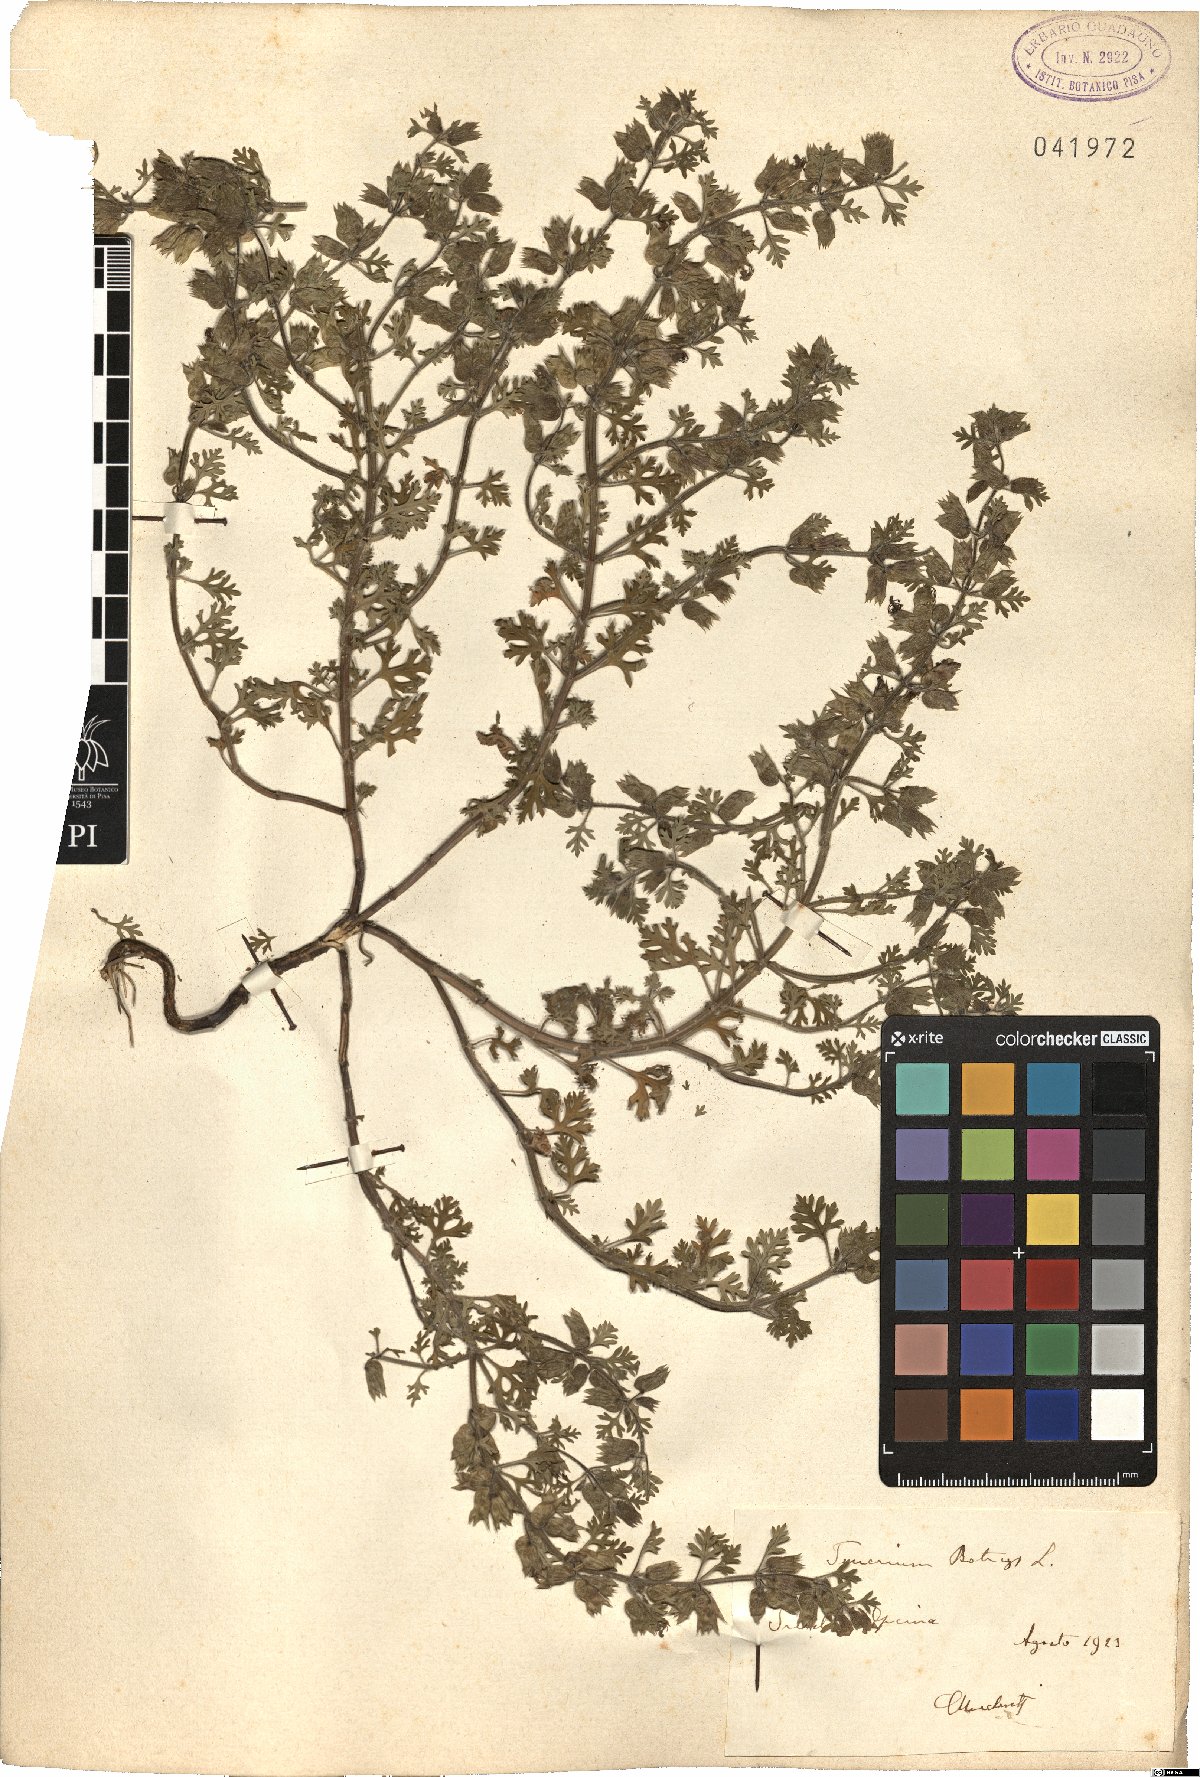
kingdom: Plantae
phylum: Tracheophyta
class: Magnoliopsida
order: Lamiales
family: Lamiaceae
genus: Teucrium
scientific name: Teucrium botrys
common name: Cut-leaved germander
